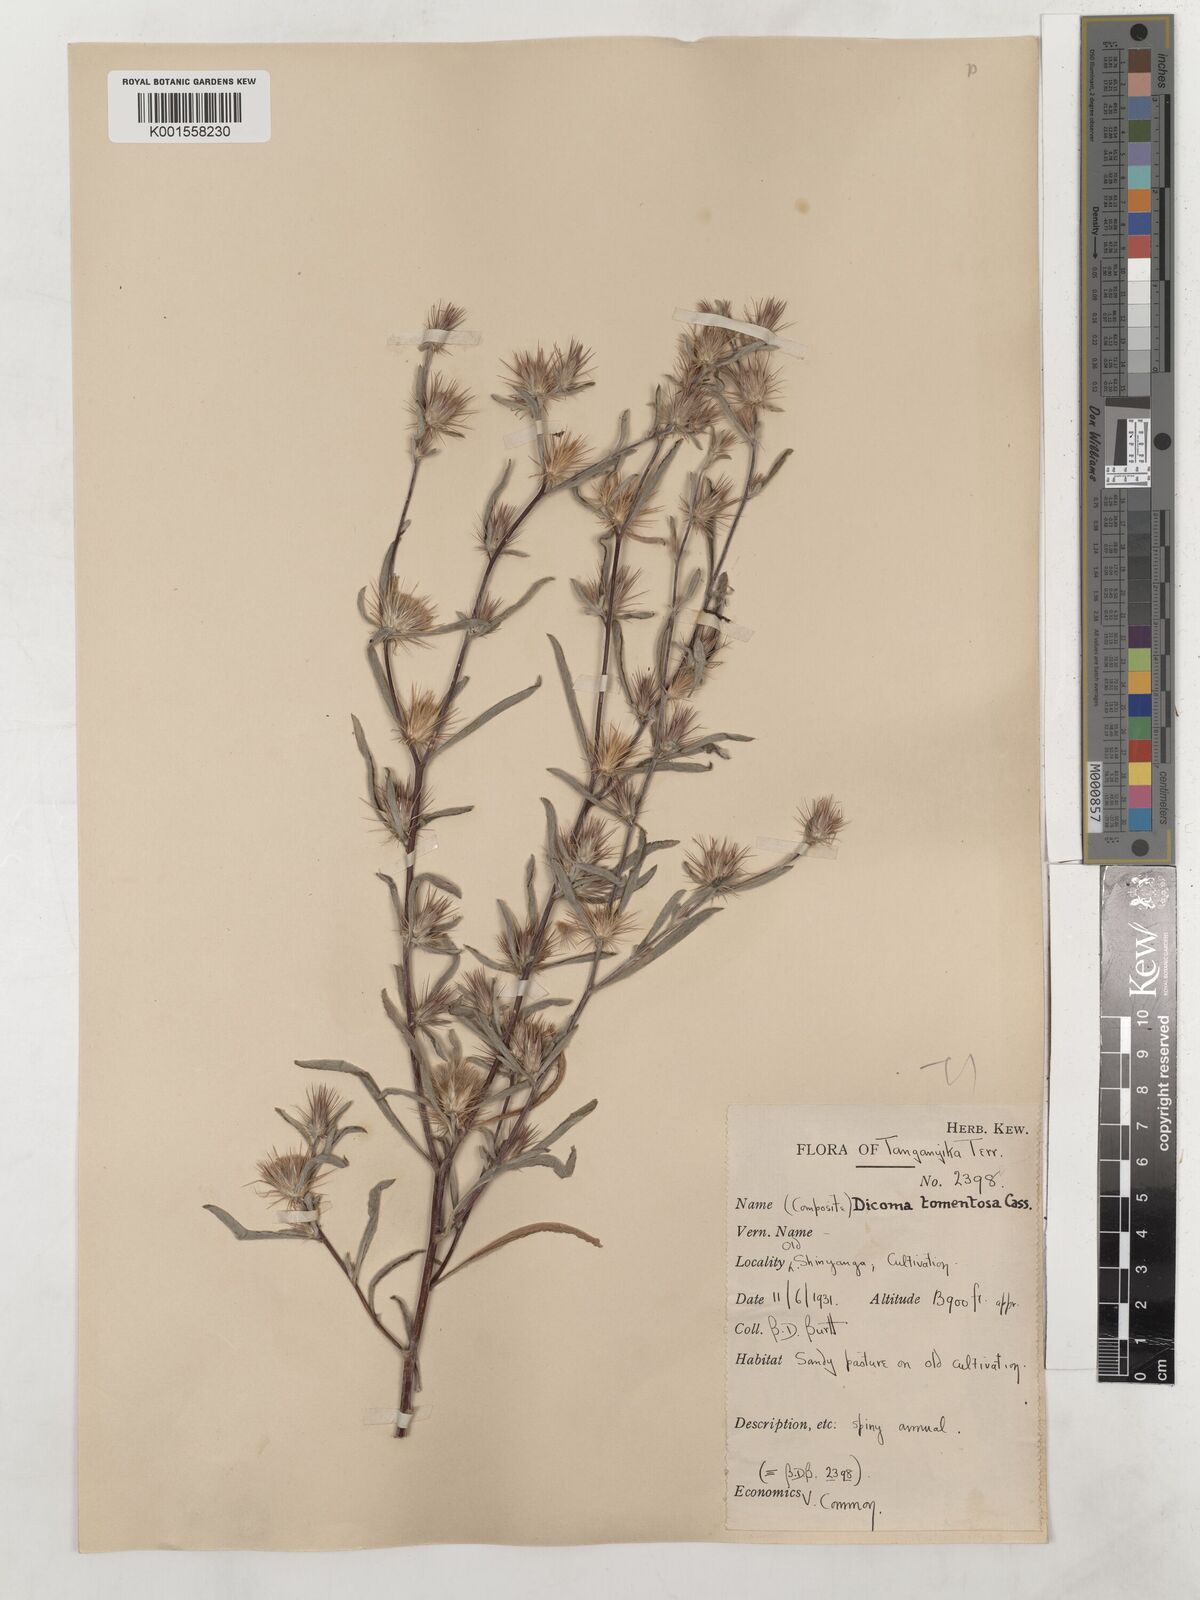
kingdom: Plantae
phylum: Tracheophyta
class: Magnoliopsida
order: Asterales
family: Asteraceae
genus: Dicoma
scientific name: Dicoma tomentosa
